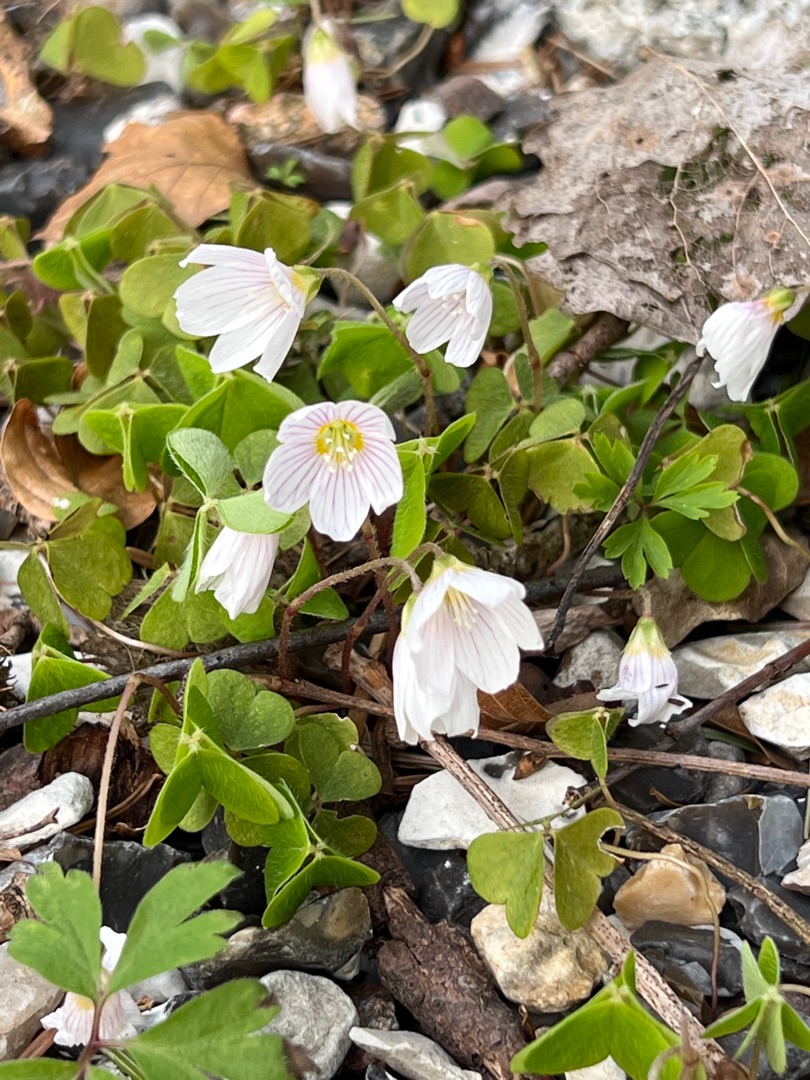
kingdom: Plantae
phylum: Tracheophyta
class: Magnoliopsida
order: Oxalidales
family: Oxalidaceae
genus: Oxalis
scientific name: Oxalis acetosella
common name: Skovsyre
